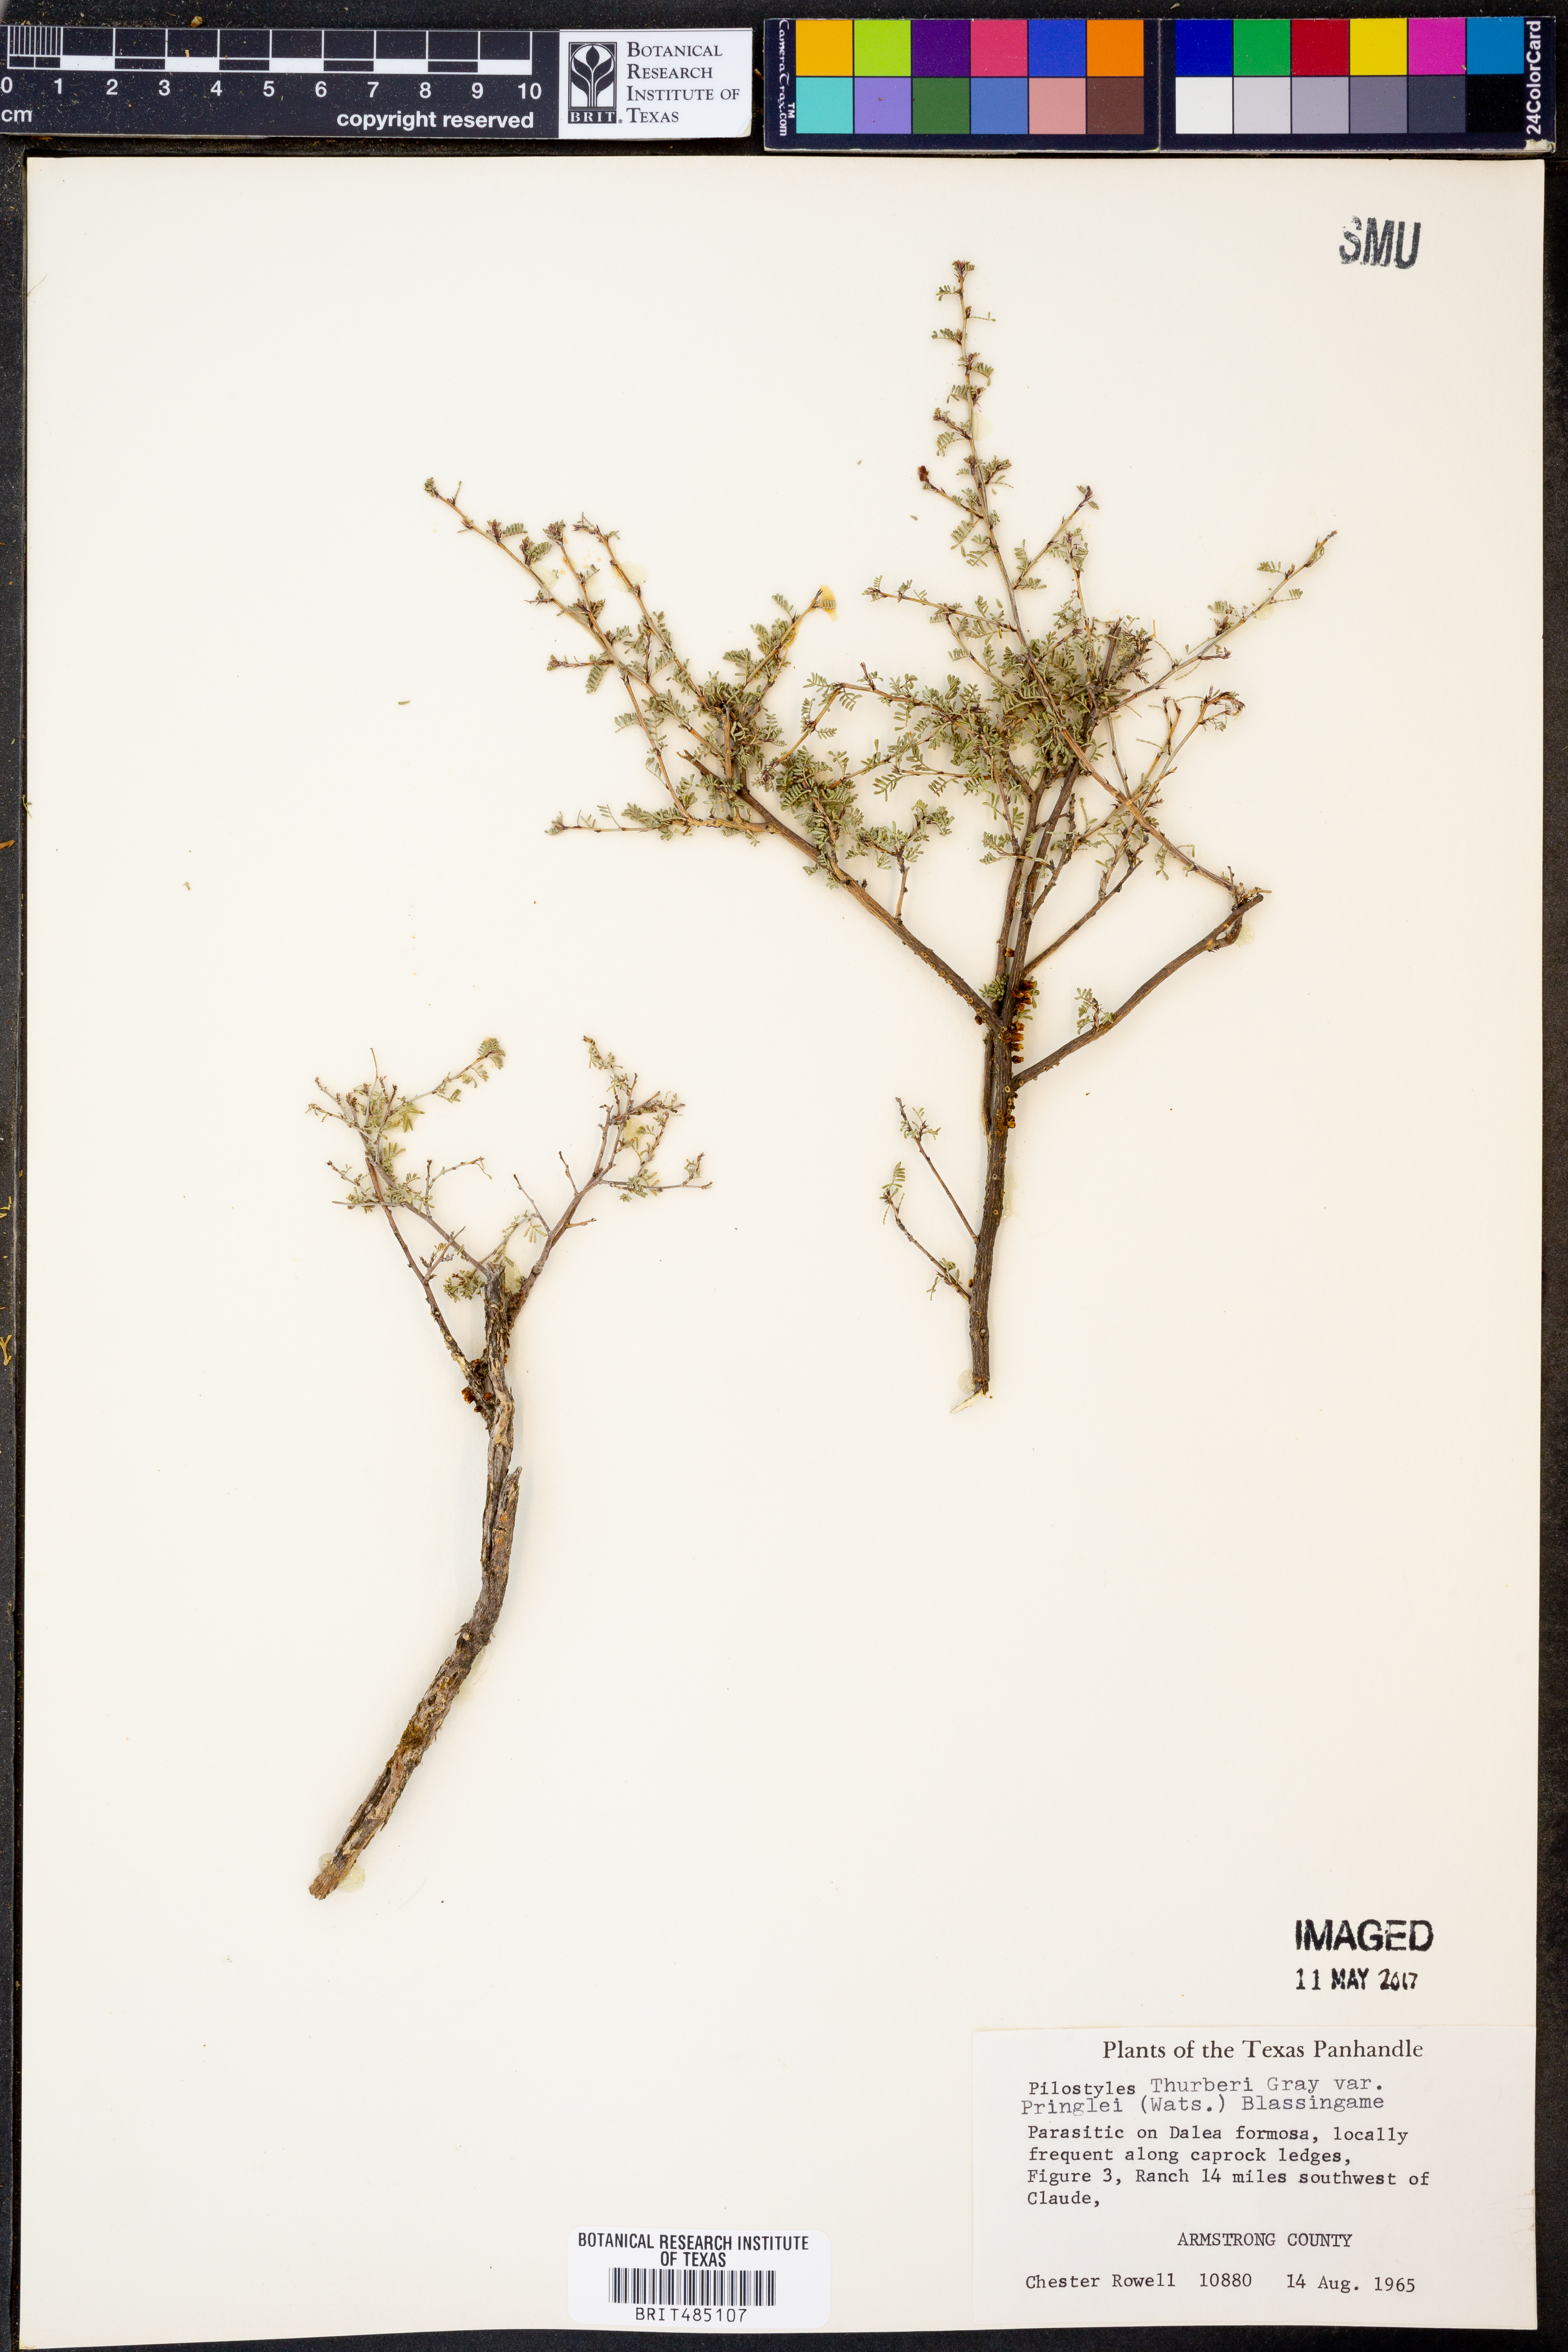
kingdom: Plantae
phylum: Tracheophyta
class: Magnoliopsida
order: Cucurbitales
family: Apodanthaceae
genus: Pilostyles
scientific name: Pilostyles thurberi
